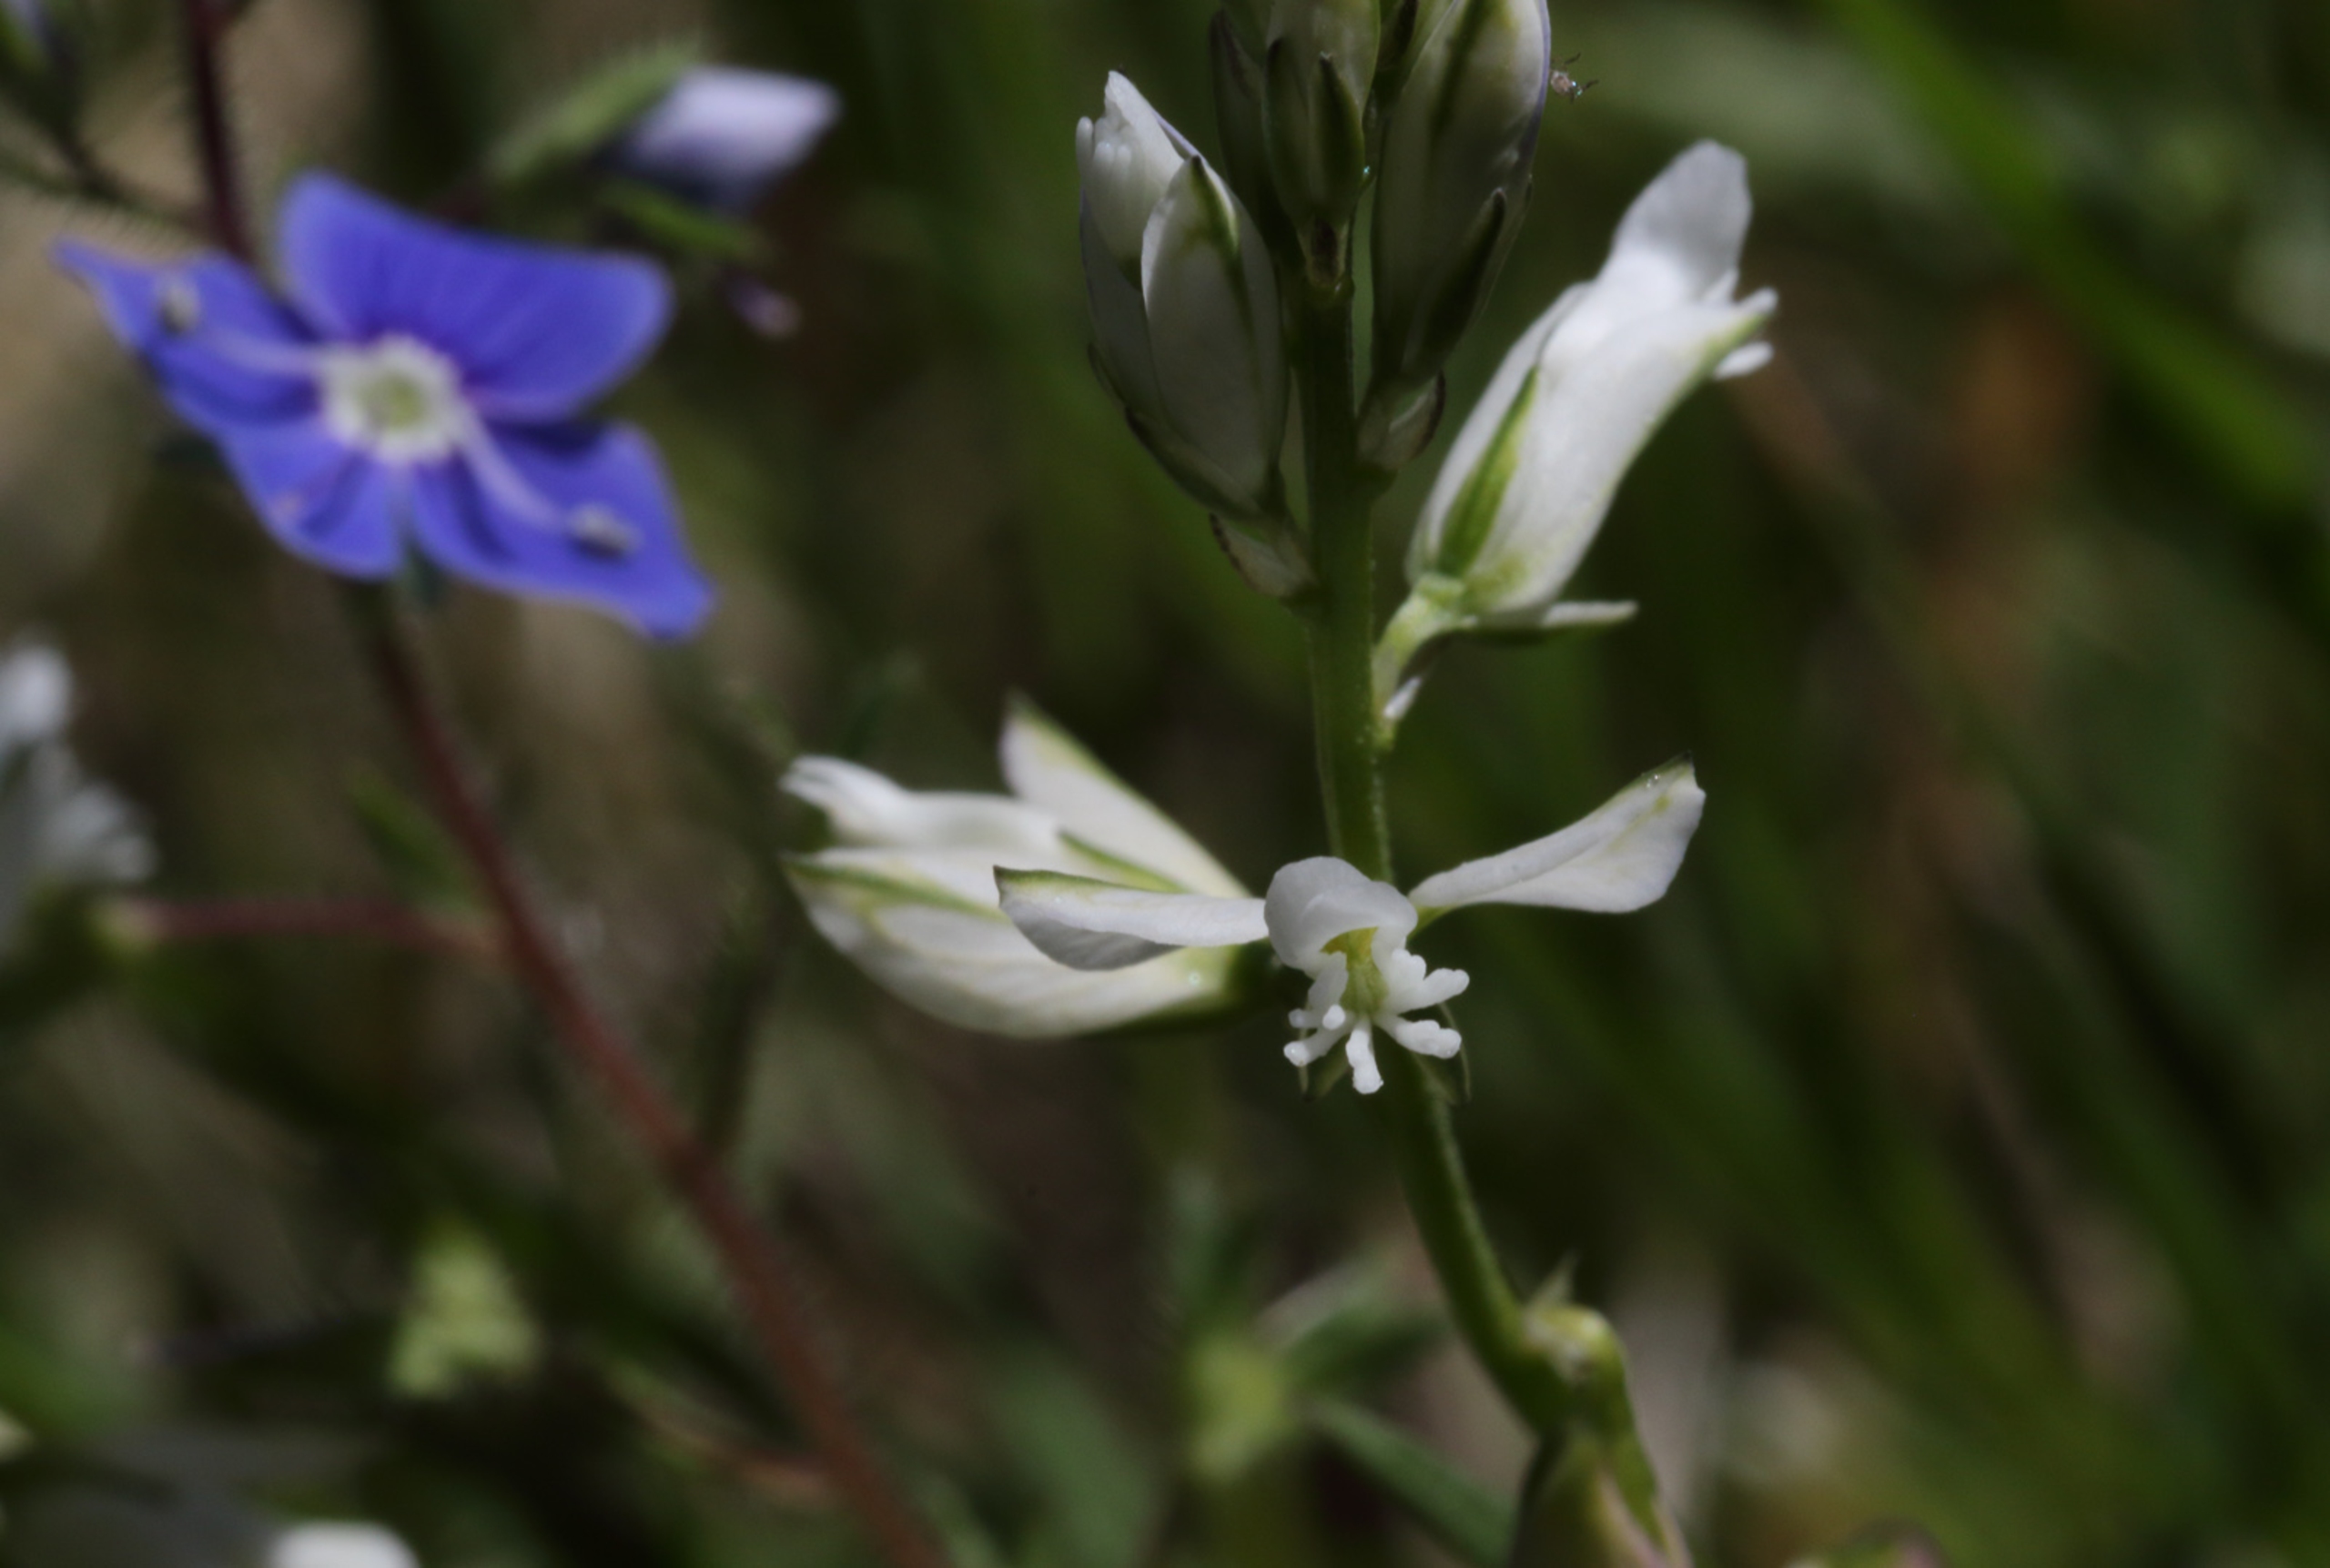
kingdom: Plantae
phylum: Tracheophyta
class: Magnoliopsida
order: Fabales
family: Polygalaceae
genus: Polygala
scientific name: Polygala vulgaris
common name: Almindelig mælkeurt
